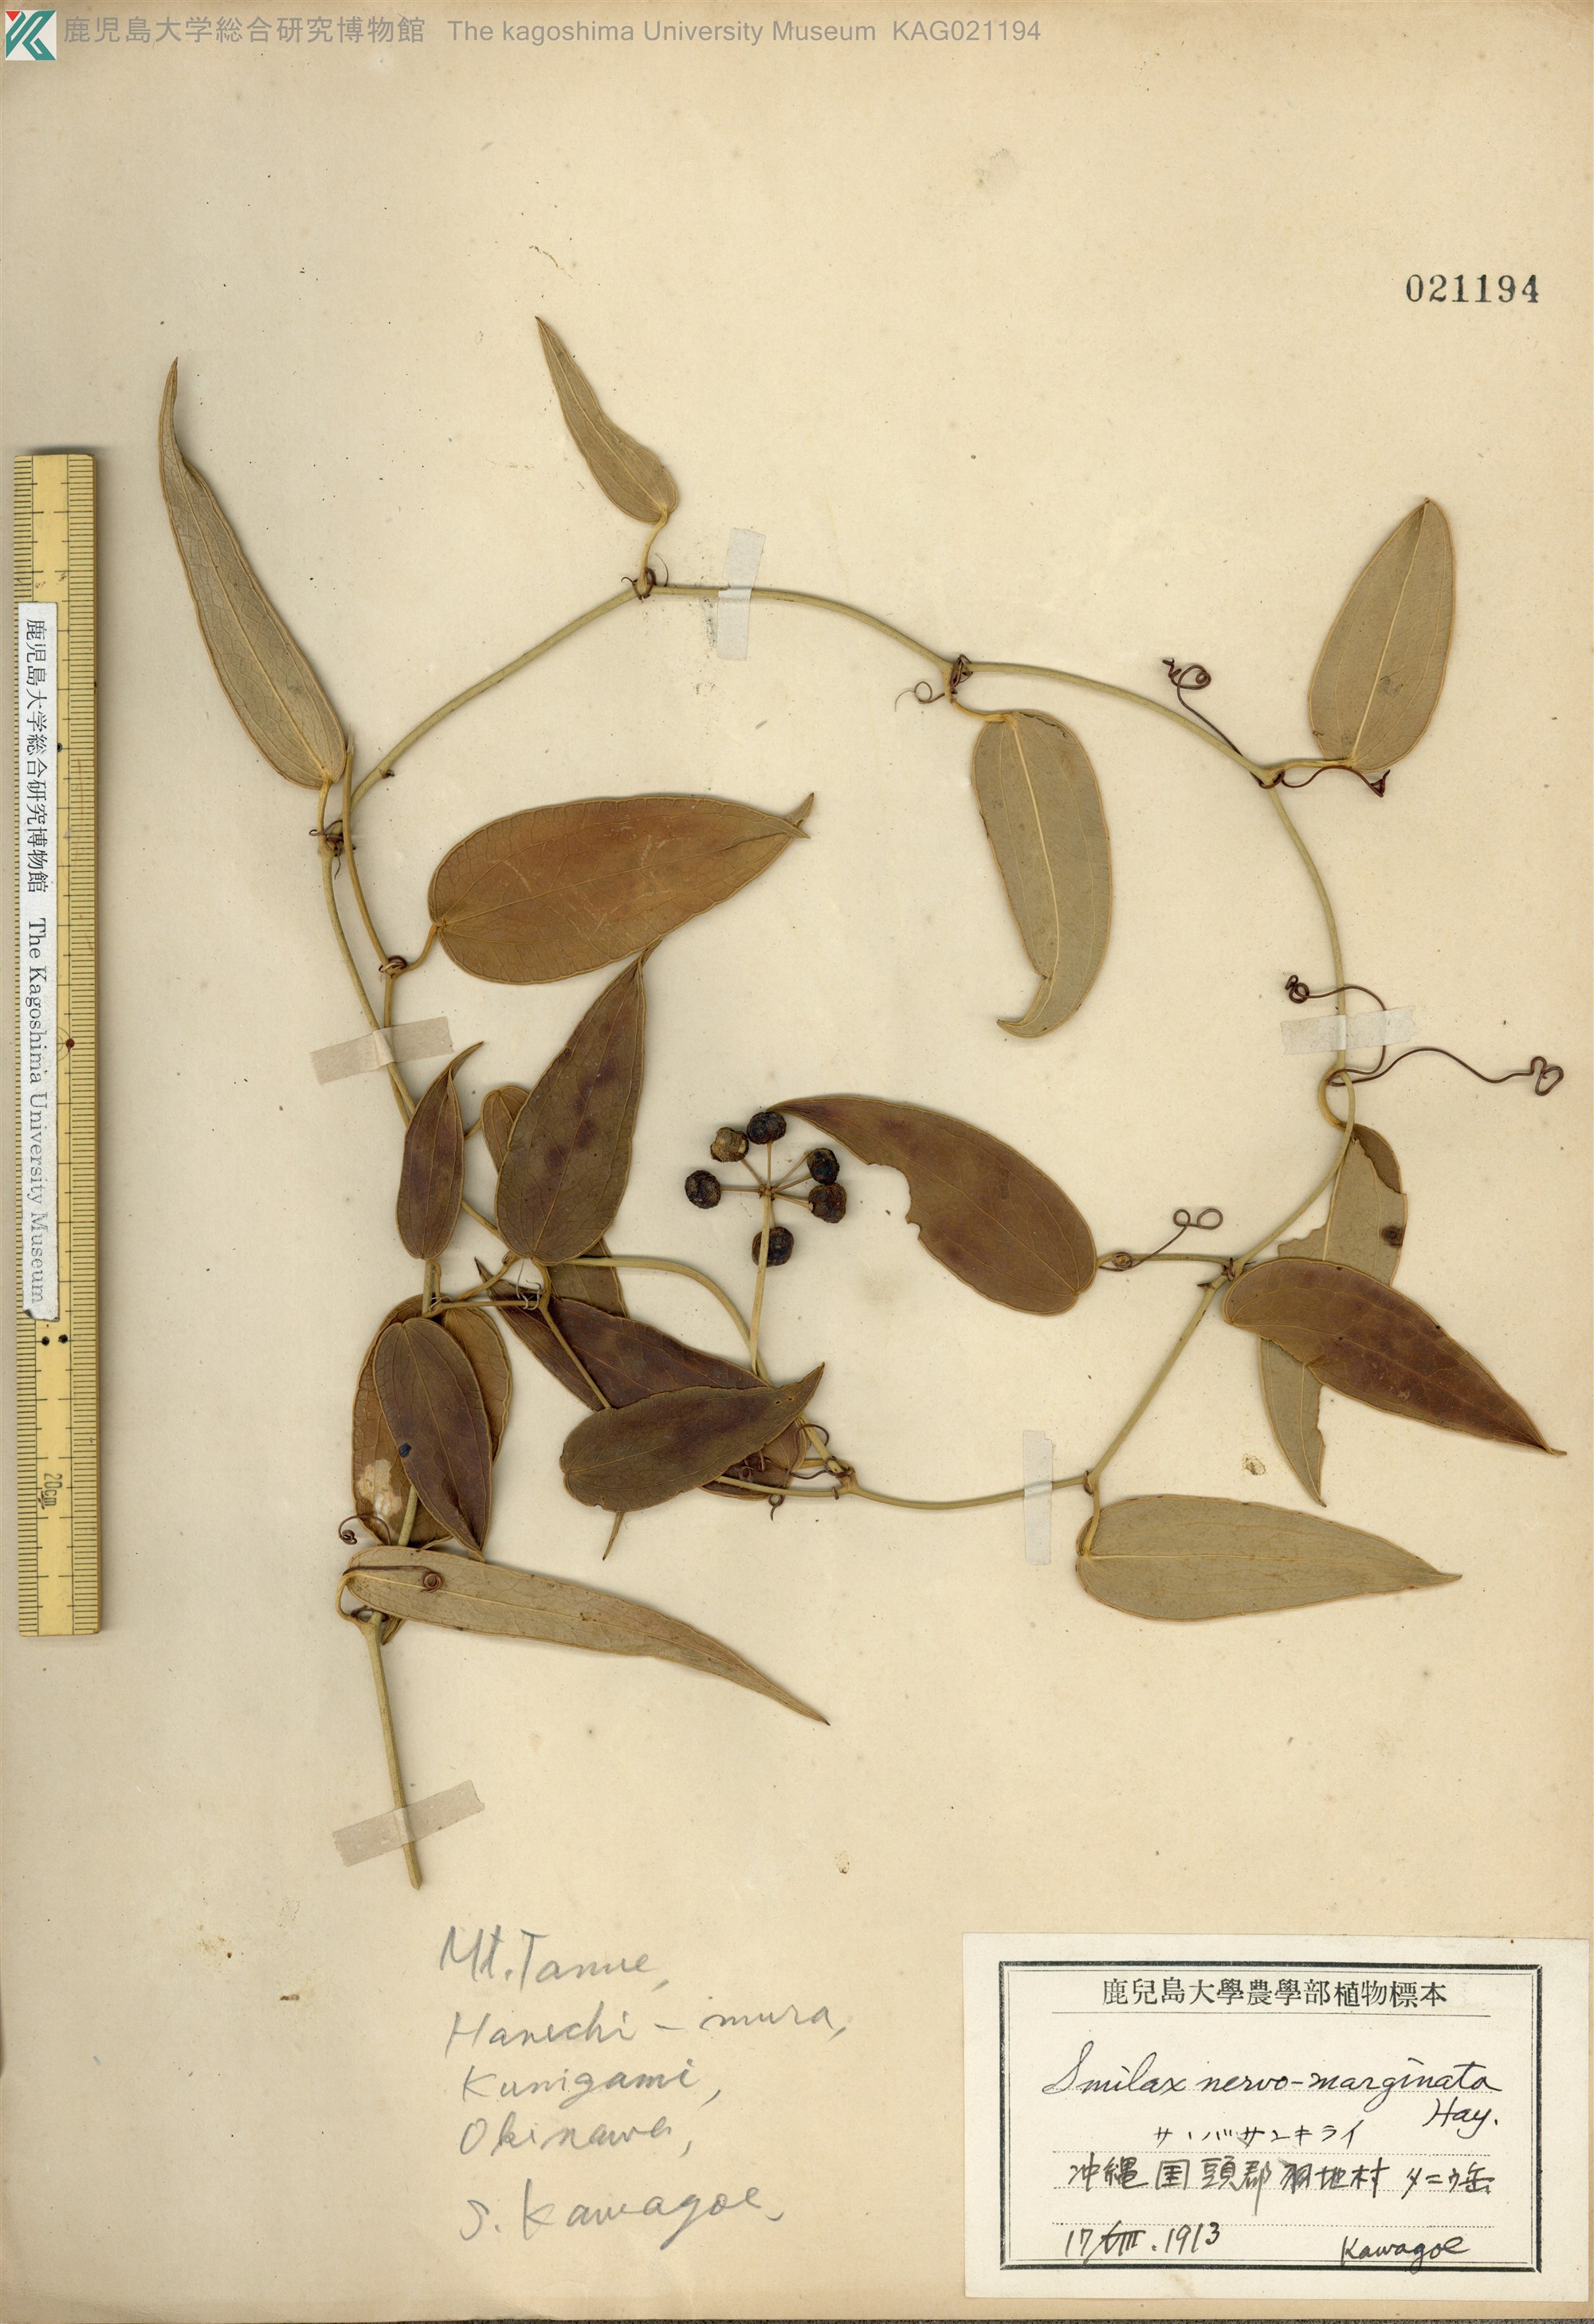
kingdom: Plantae
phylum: Tracheophyta
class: Liliopsida
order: Liliales
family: Smilacaceae
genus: Smilax
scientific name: Smilax nervomarginata
